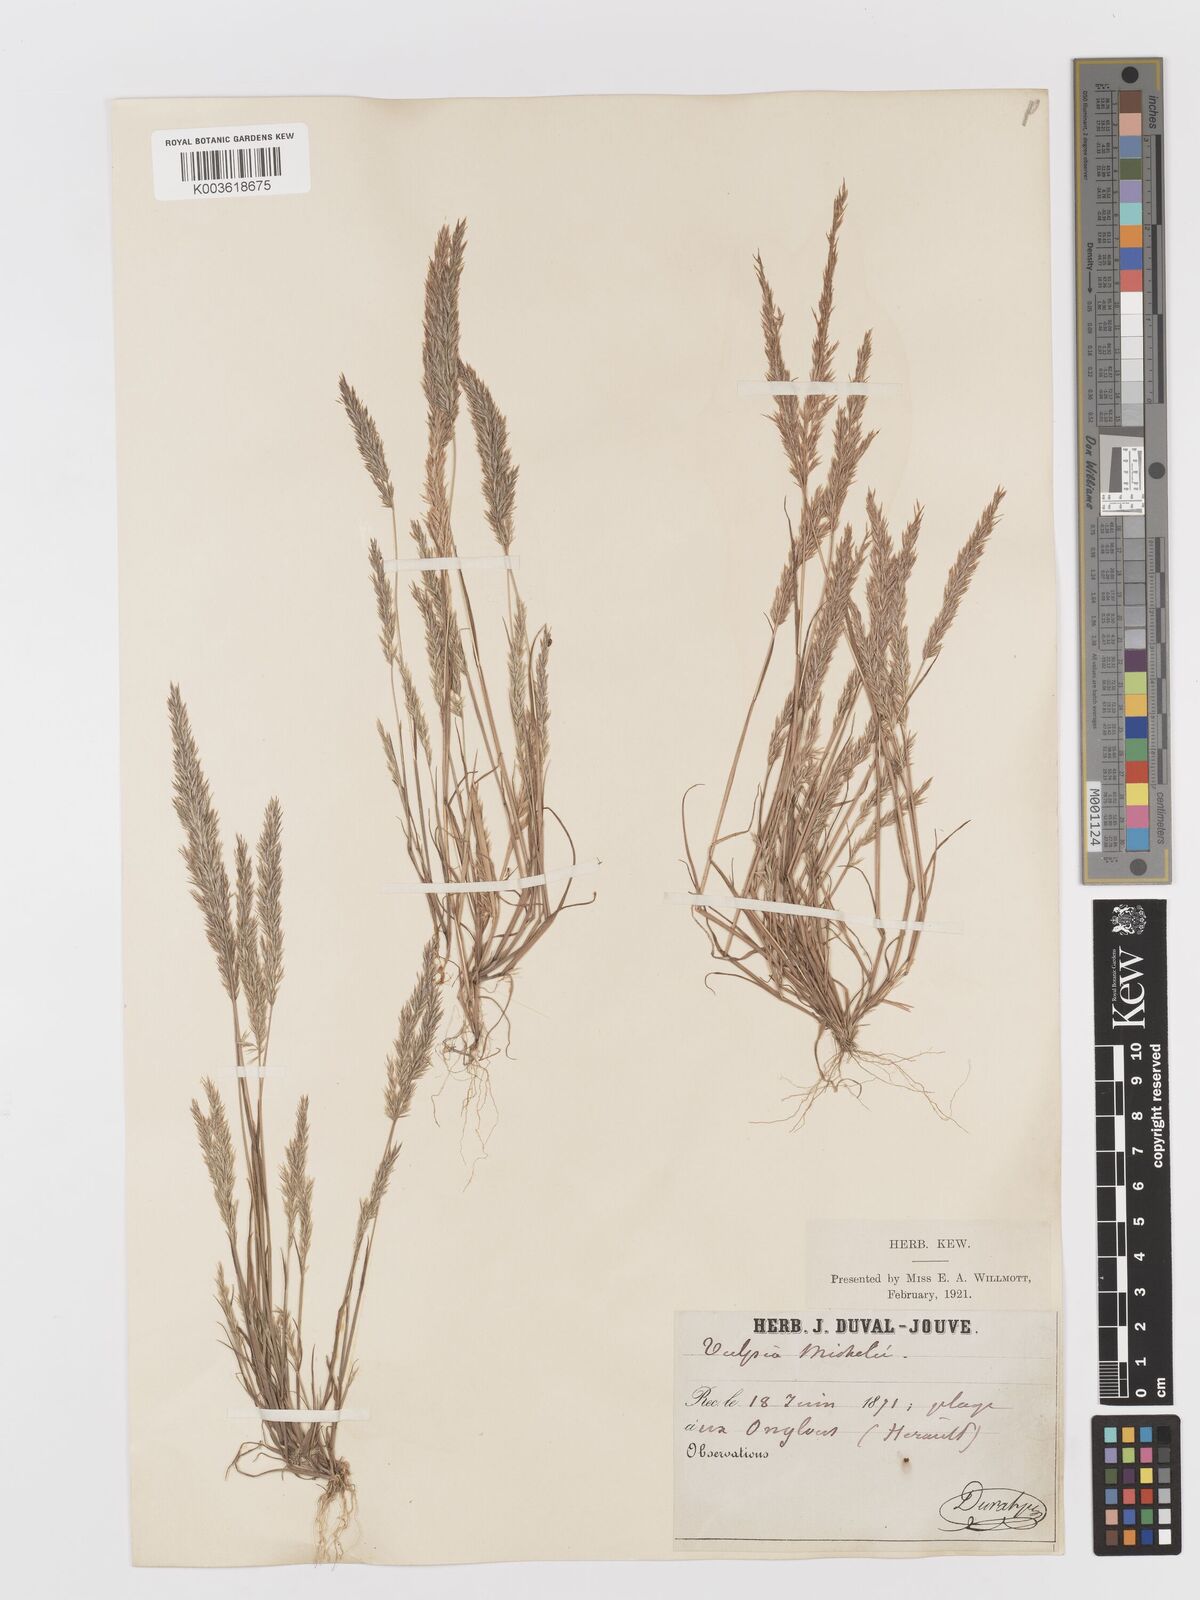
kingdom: Plantae
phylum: Tracheophyta
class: Liliopsida
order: Poales
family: Poaceae
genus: Avellinia
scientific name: Avellinia festucoides
